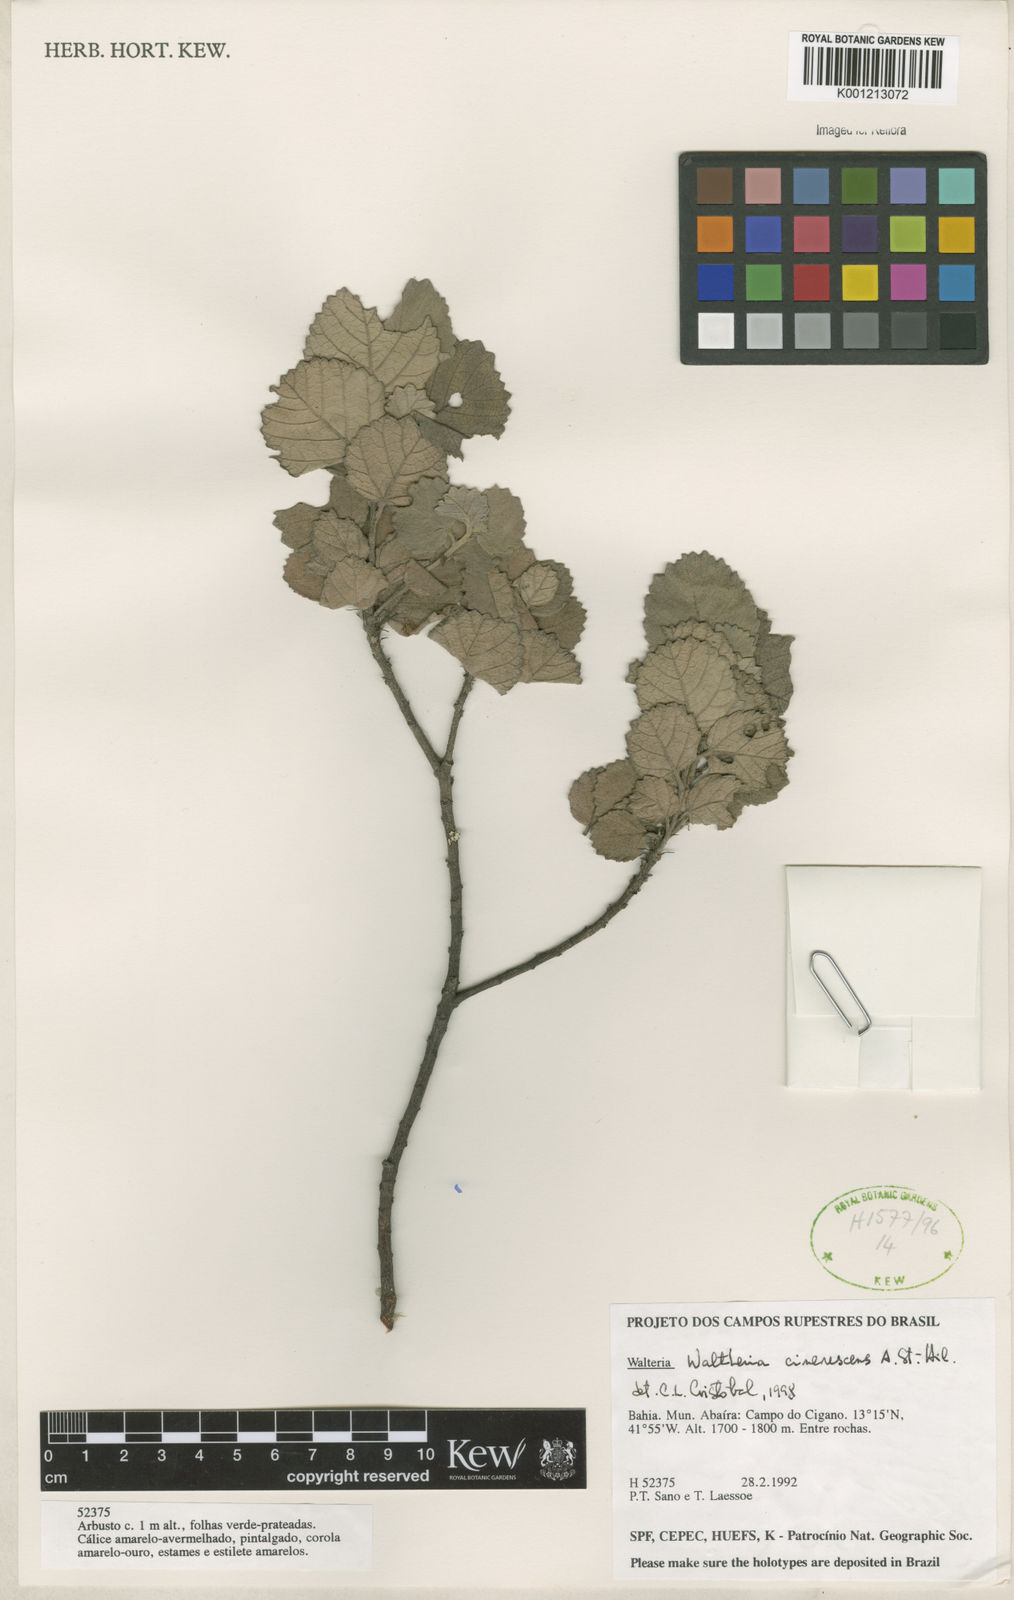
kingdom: Plantae
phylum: Tracheophyta
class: Magnoliopsida
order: Malvales
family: Malvaceae
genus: Waltheria
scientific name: Waltheria cinerescens
